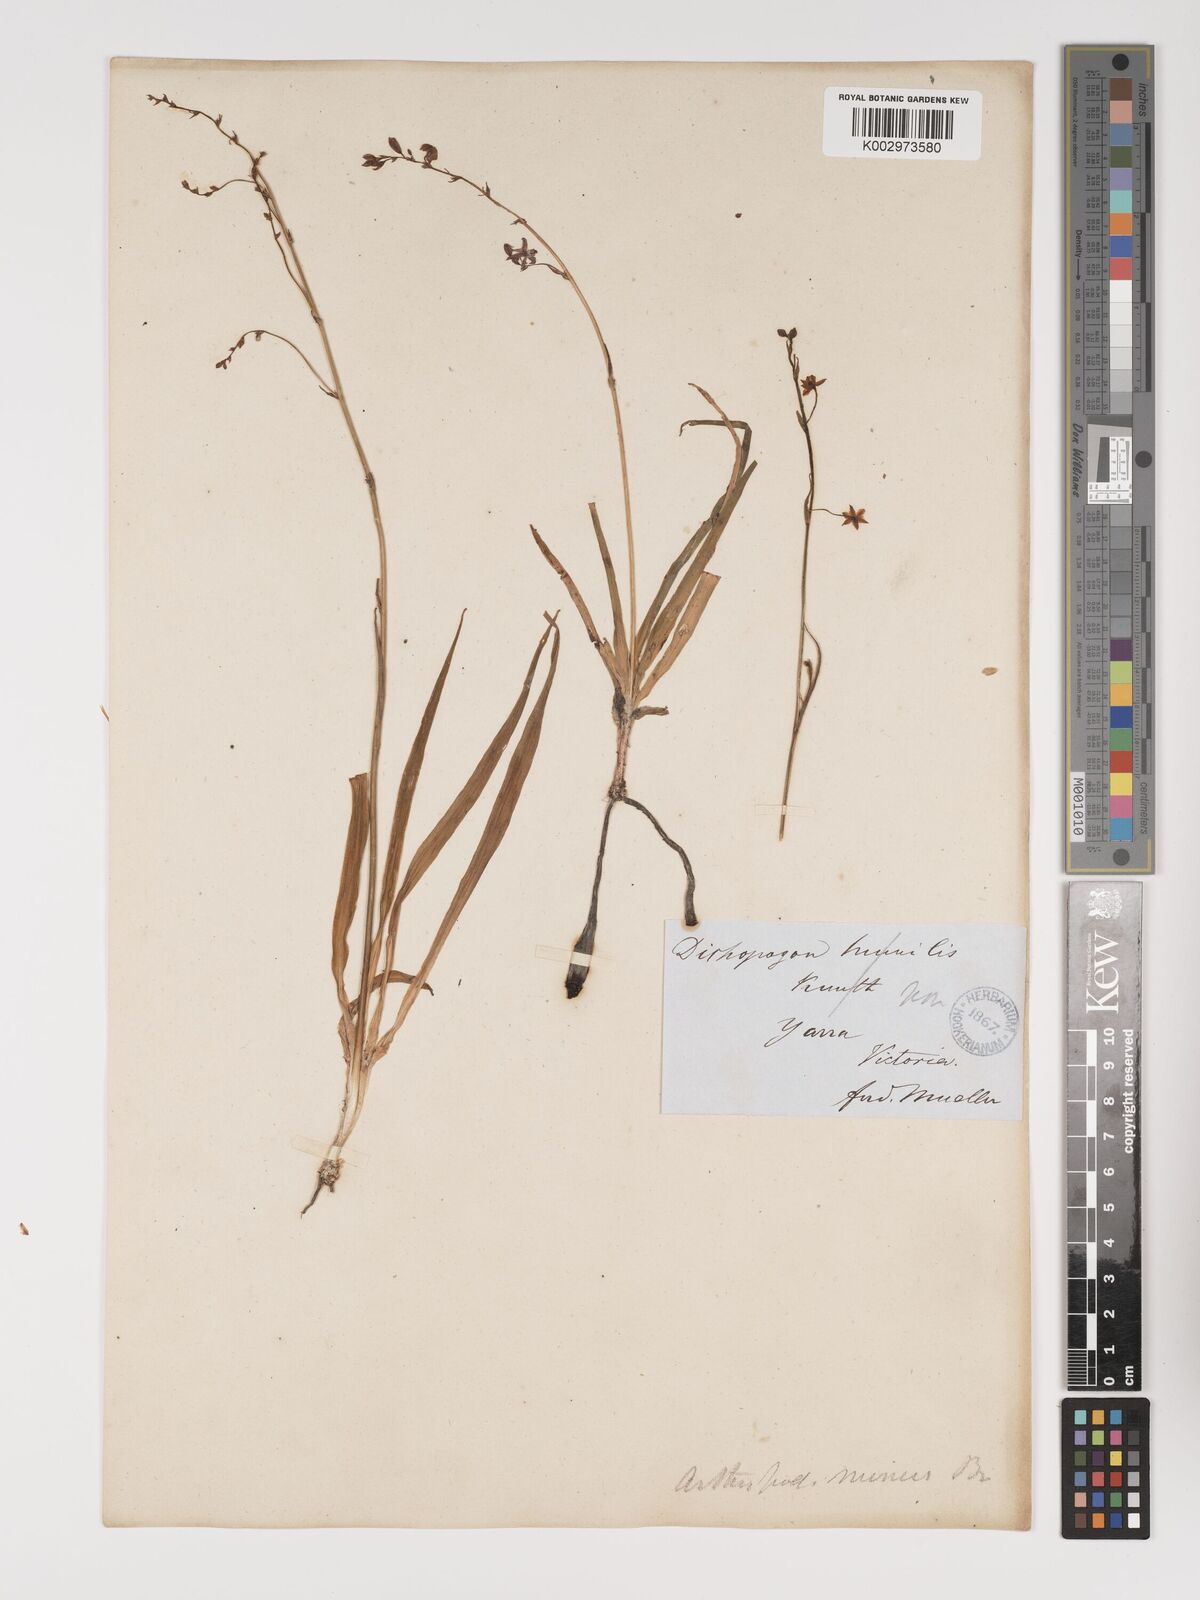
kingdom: Plantae
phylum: Tracheophyta
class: Liliopsida
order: Asparagales
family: Asparagaceae
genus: Arthropodium
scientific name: Arthropodium minus
